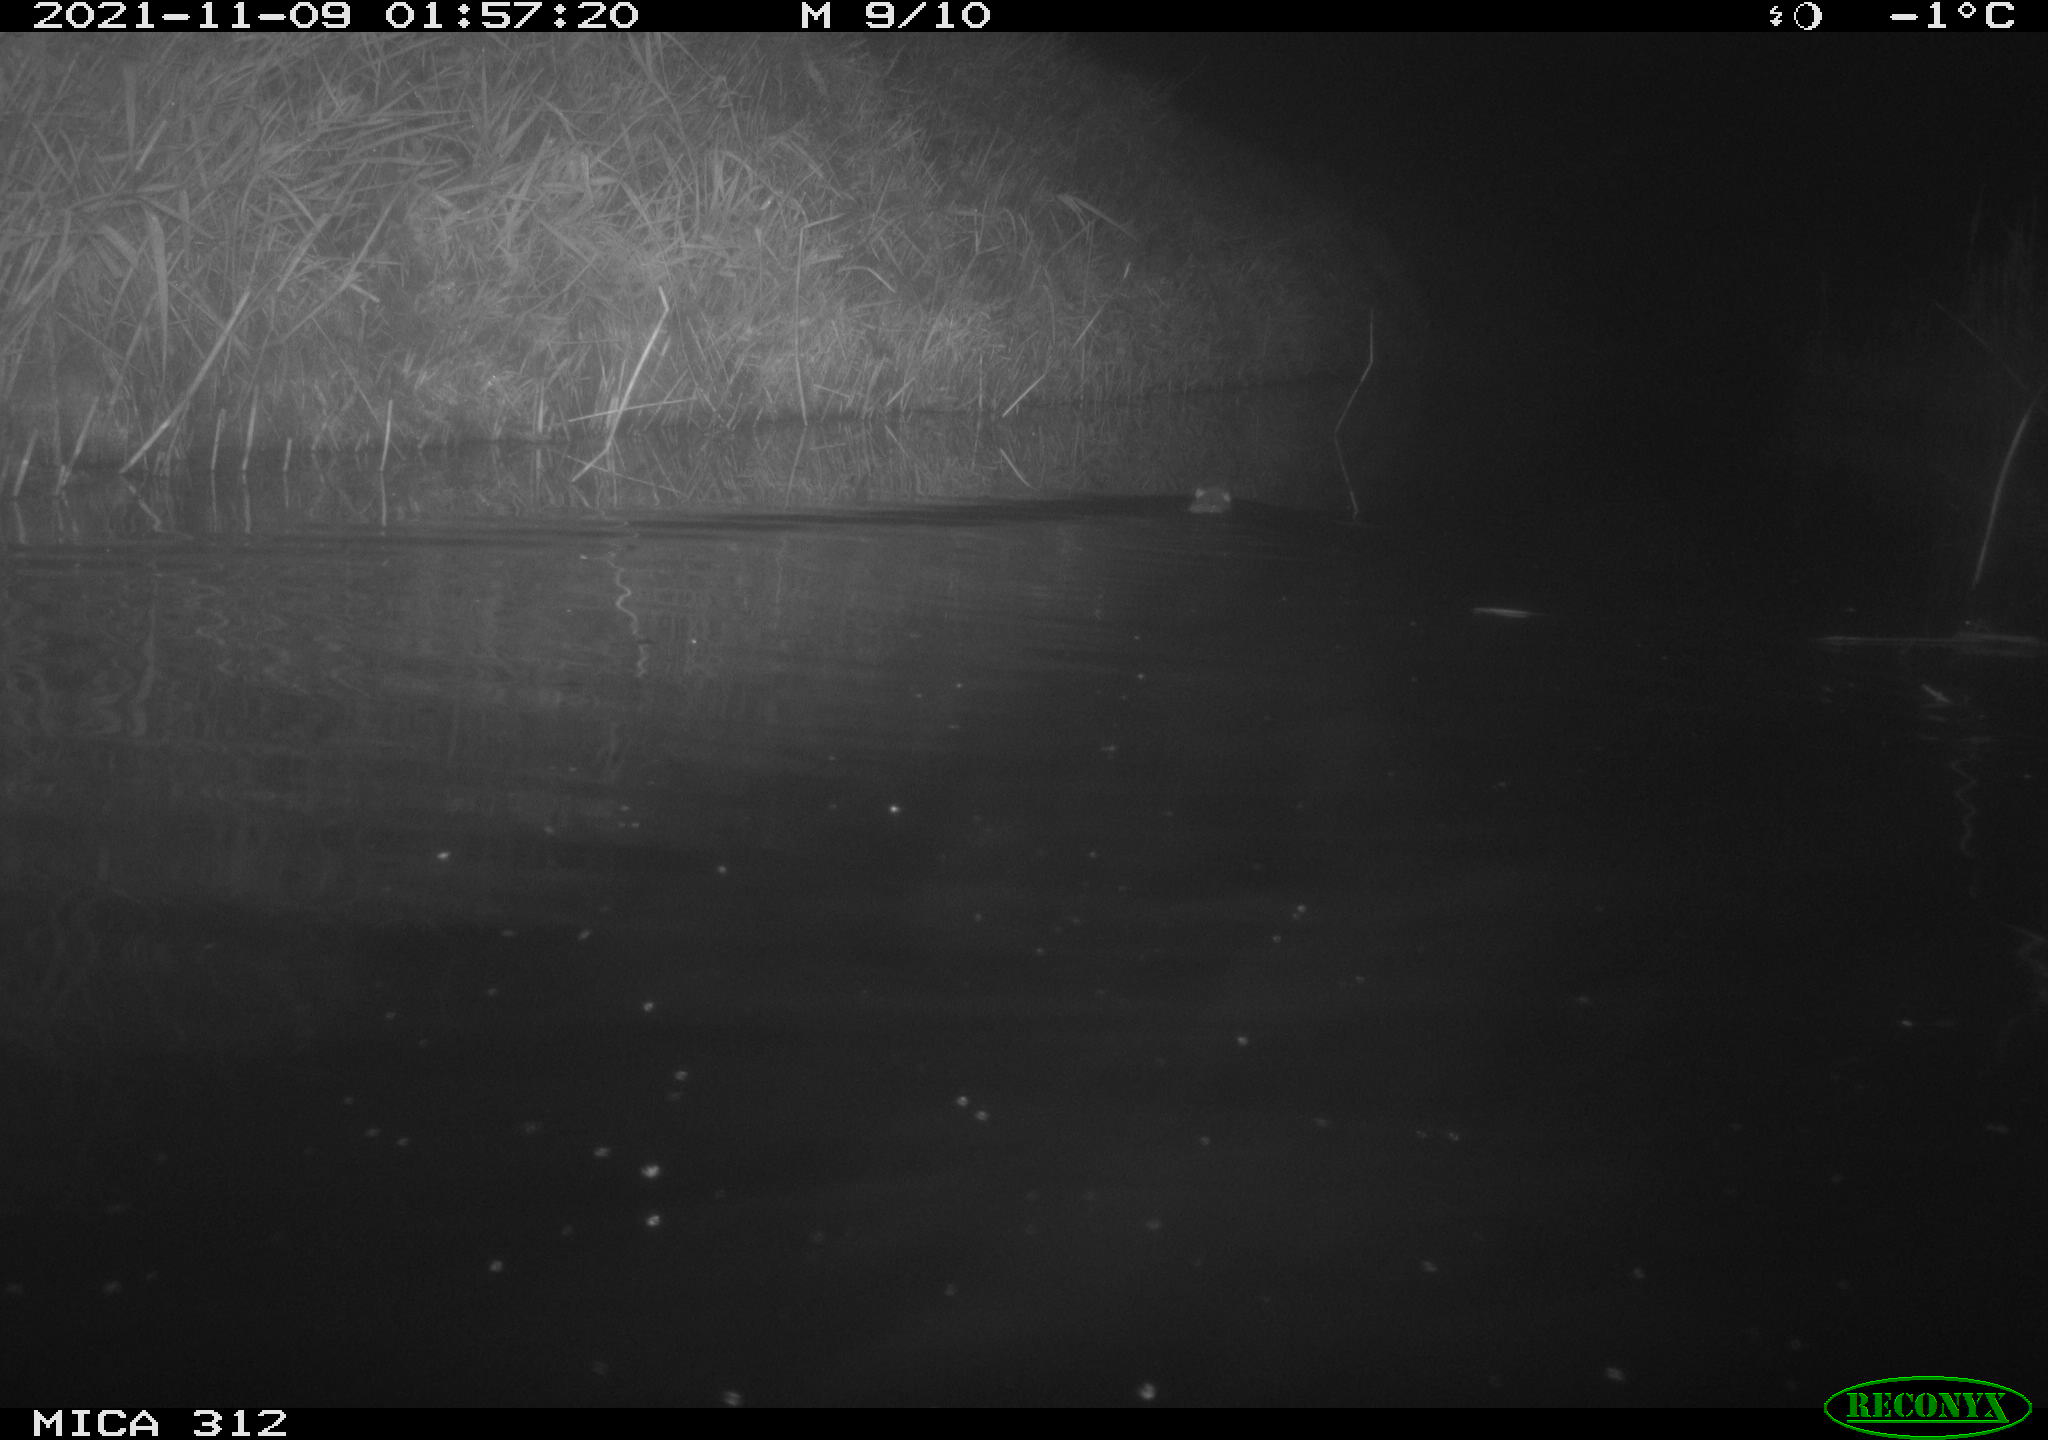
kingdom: Animalia
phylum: Chordata
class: Mammalia
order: Rodentia
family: Muridae
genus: Rattus
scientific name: Rattus norvegicus
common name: Brown rat
